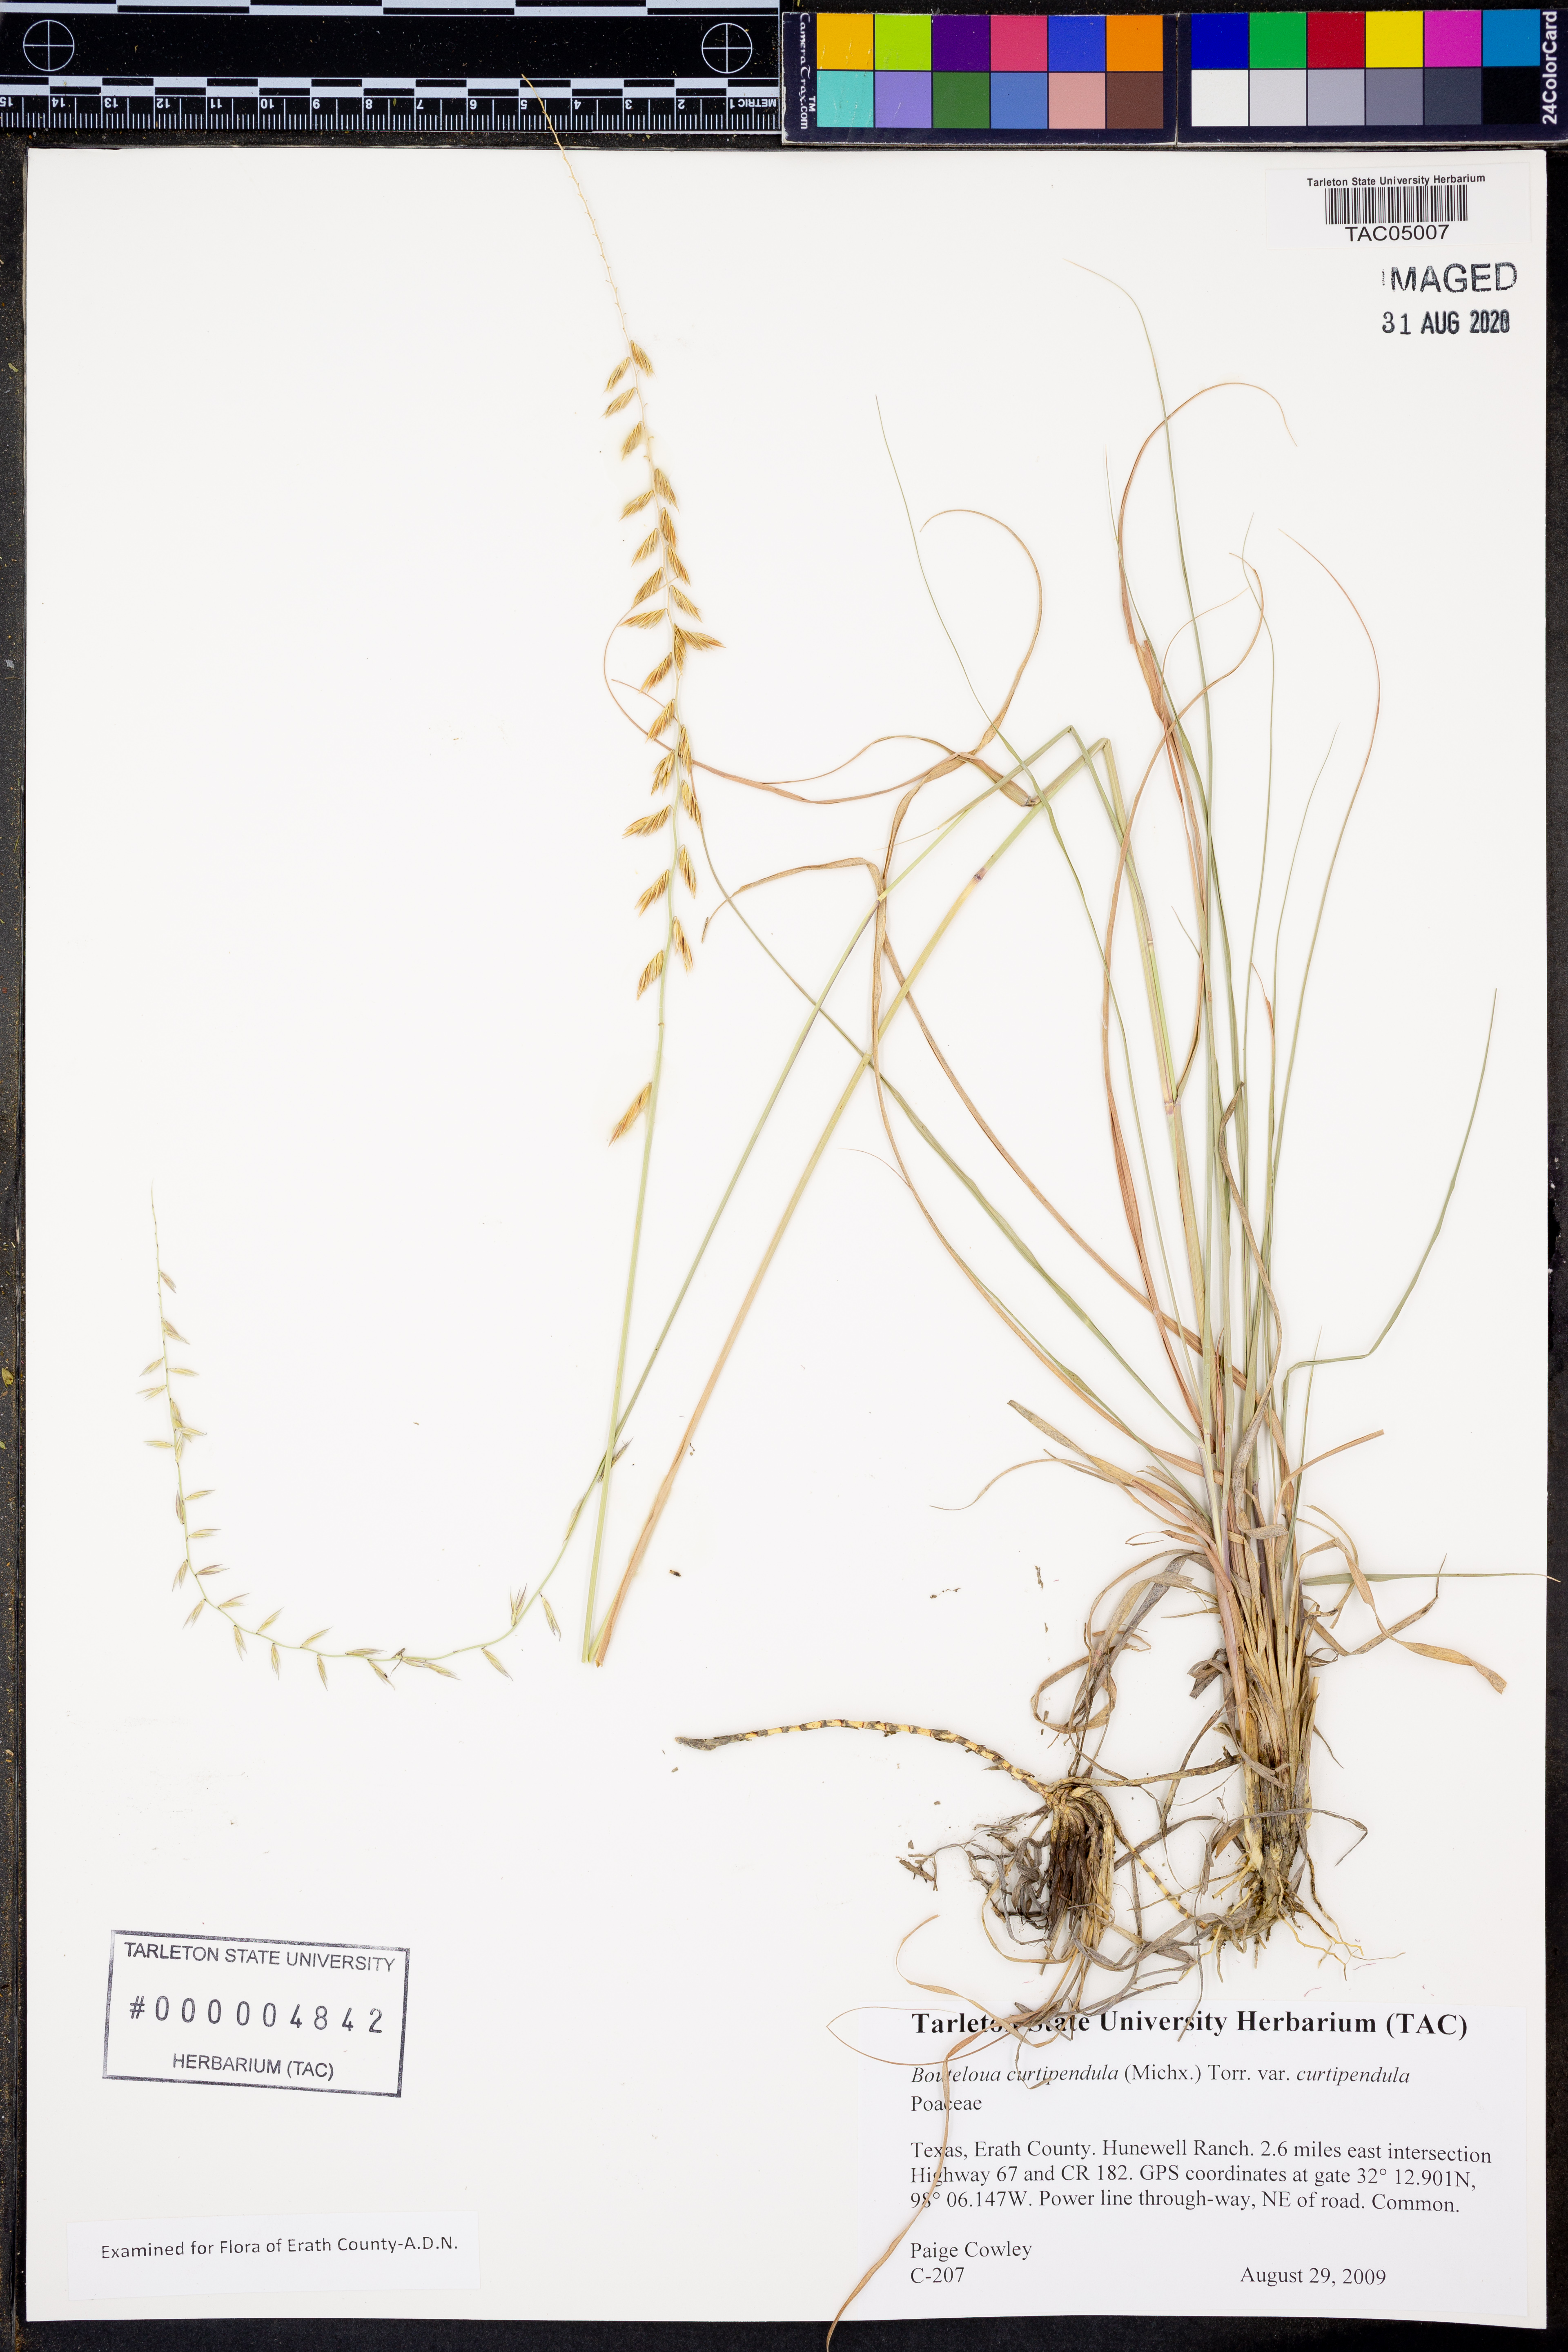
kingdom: Plantae
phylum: Tracheophyta
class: Liliopsida
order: Poales
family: Poaceae
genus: Bouteloua
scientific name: Bouteloua curtipendula
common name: Side-oats grama
